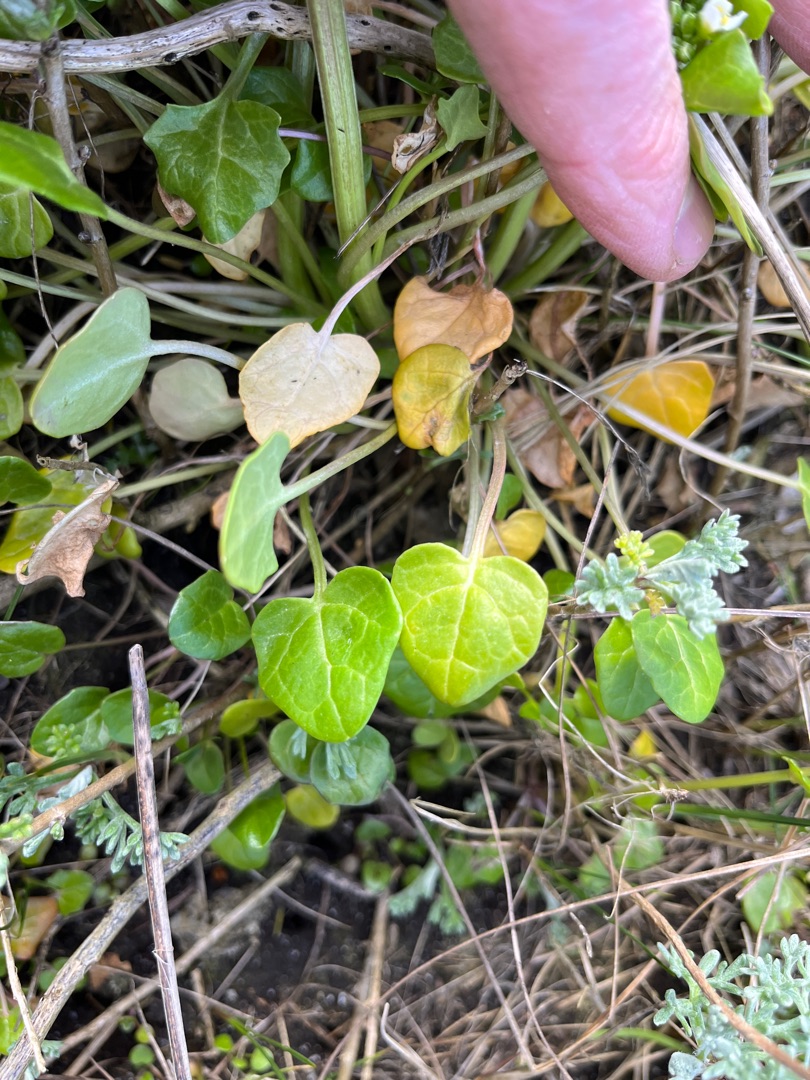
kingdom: Plantae
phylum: Tracheophyta
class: Magnoliopsida
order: Brassicales
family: Brassicaceae
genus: Cochlearia
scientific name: Cochlearia officinalis
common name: Læge-kokleare (underart)
